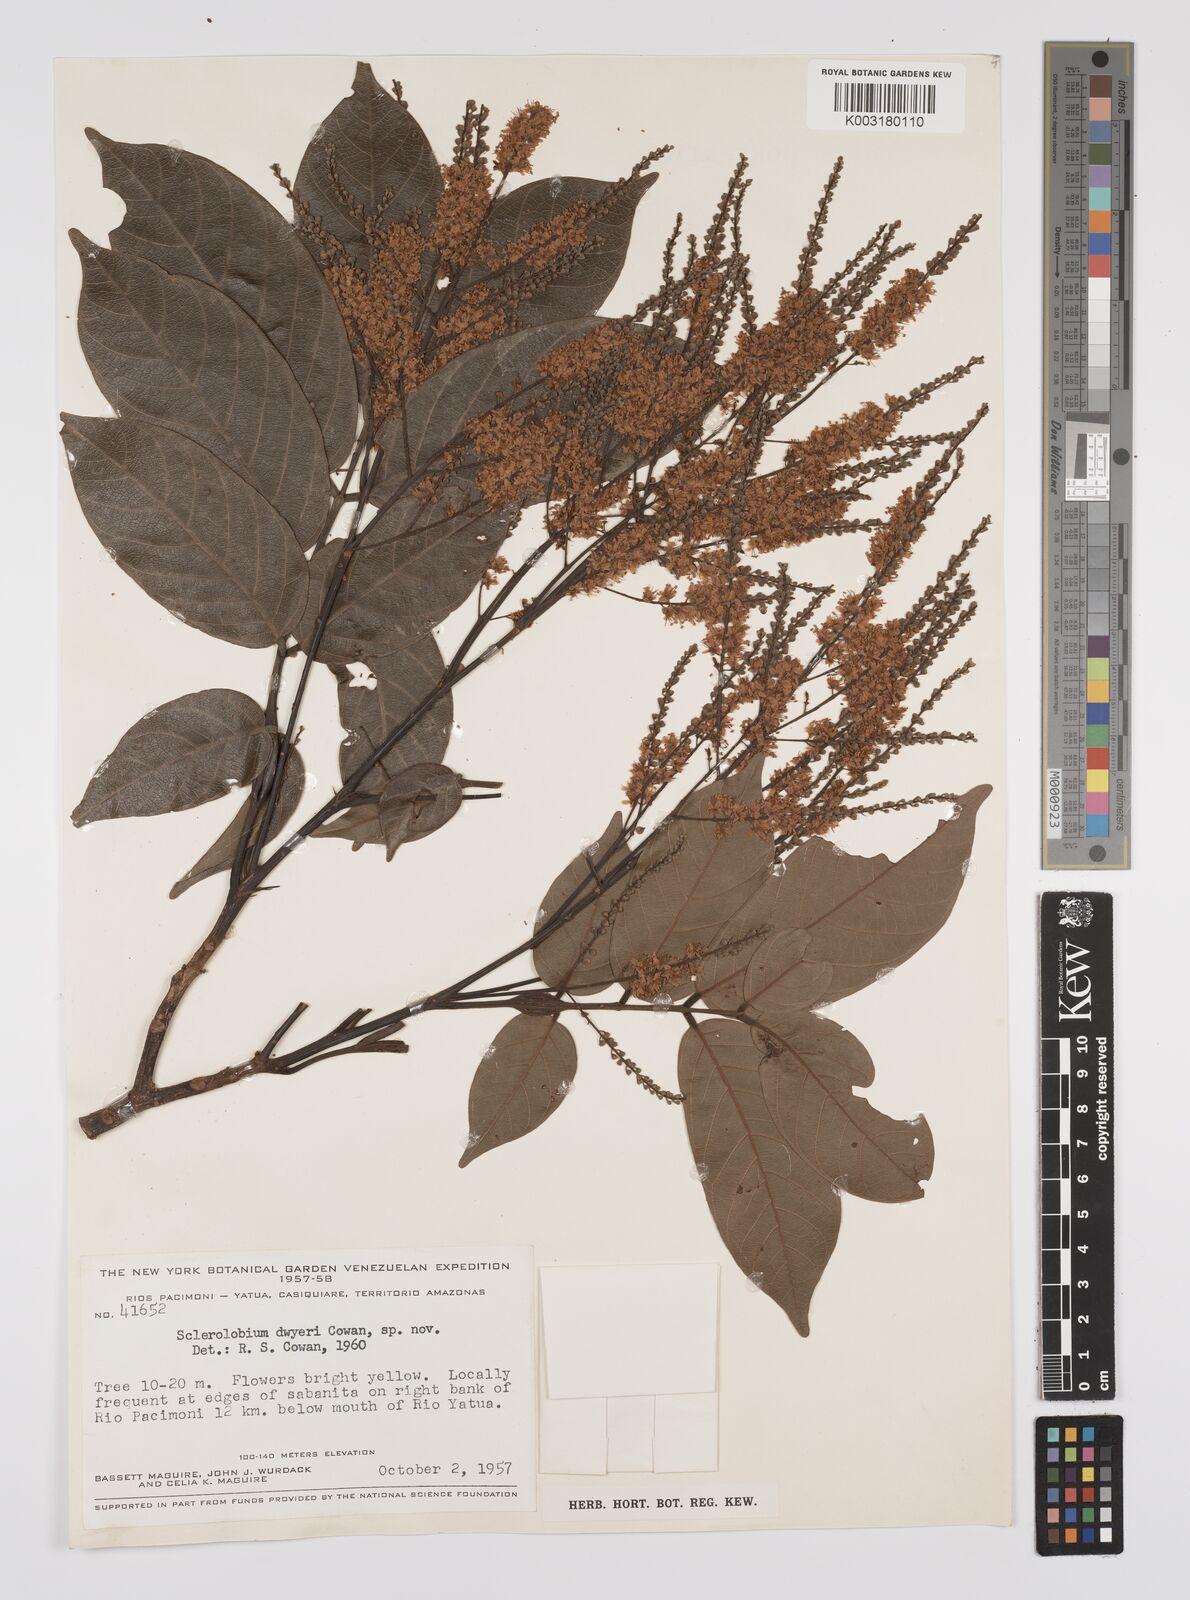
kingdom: Plantae
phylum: Tracheophyta
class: Magnoliopsida
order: Fabales
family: Fabaceae
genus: Tachigali
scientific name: Tachigali davidsei
